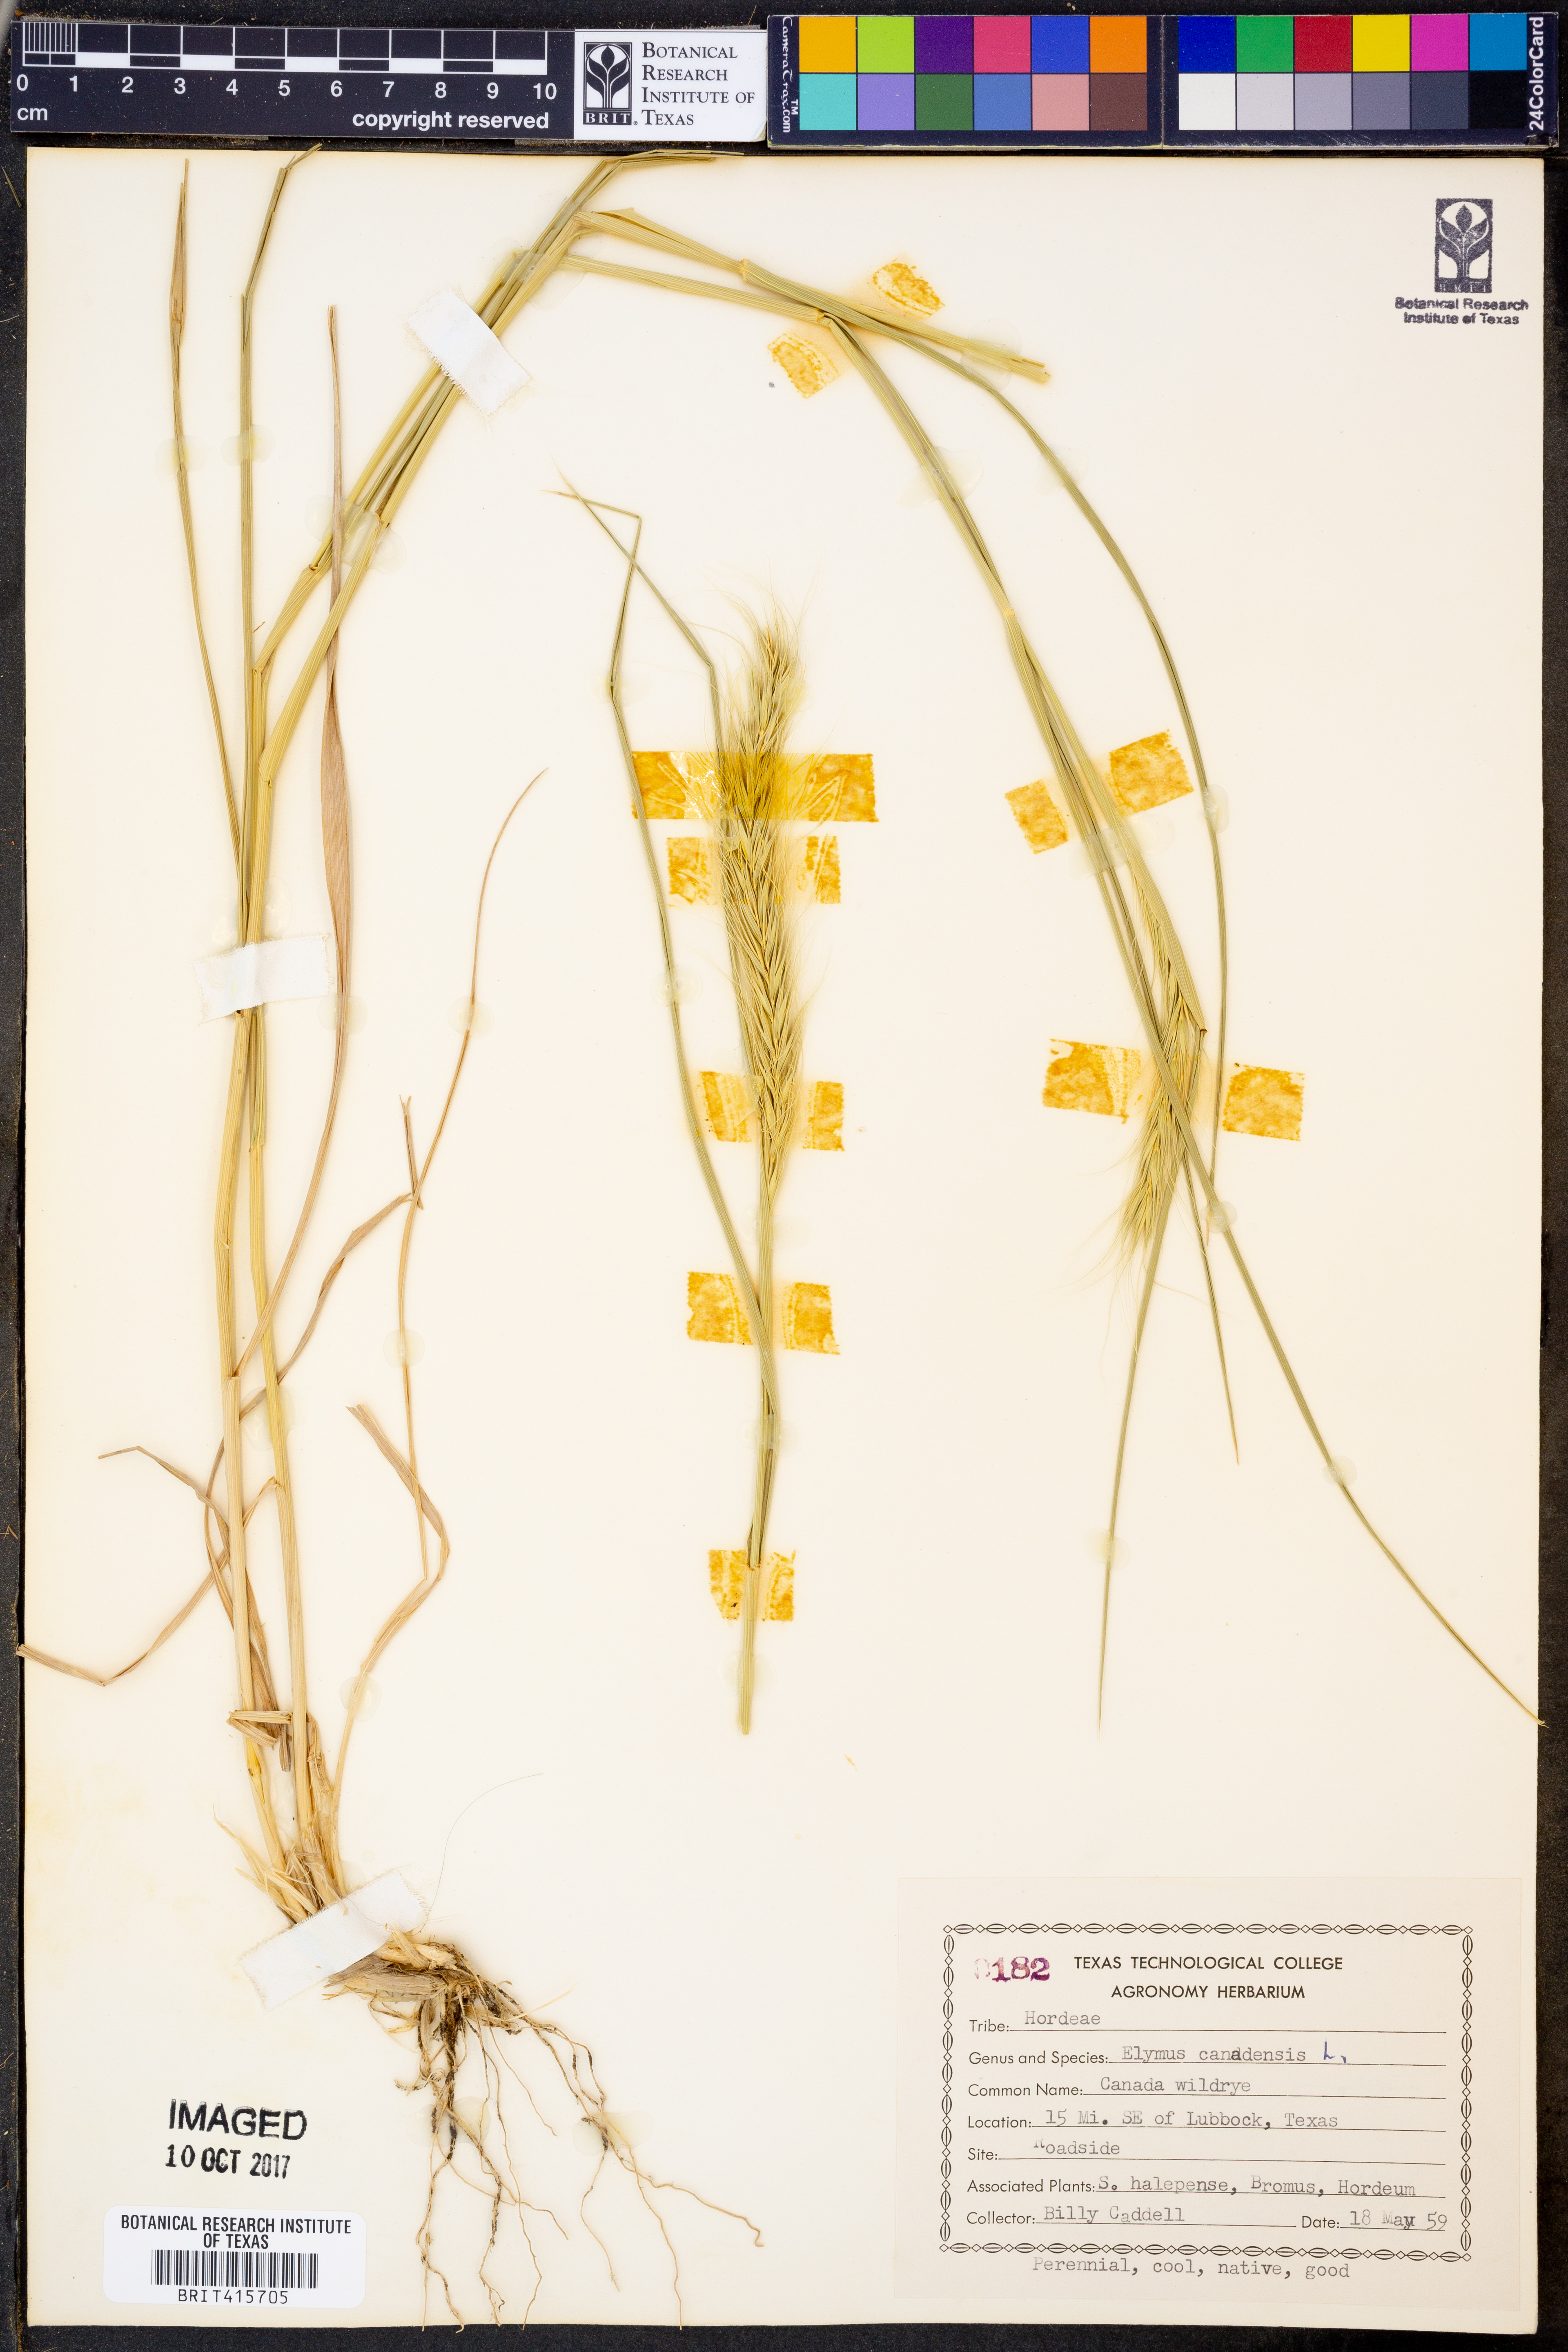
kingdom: Plantae
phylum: Tracheophyta
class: Liliopsida
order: Poales
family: Poaceae
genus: Elymus
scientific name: Elymus canadensis
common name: Canada wild rye
